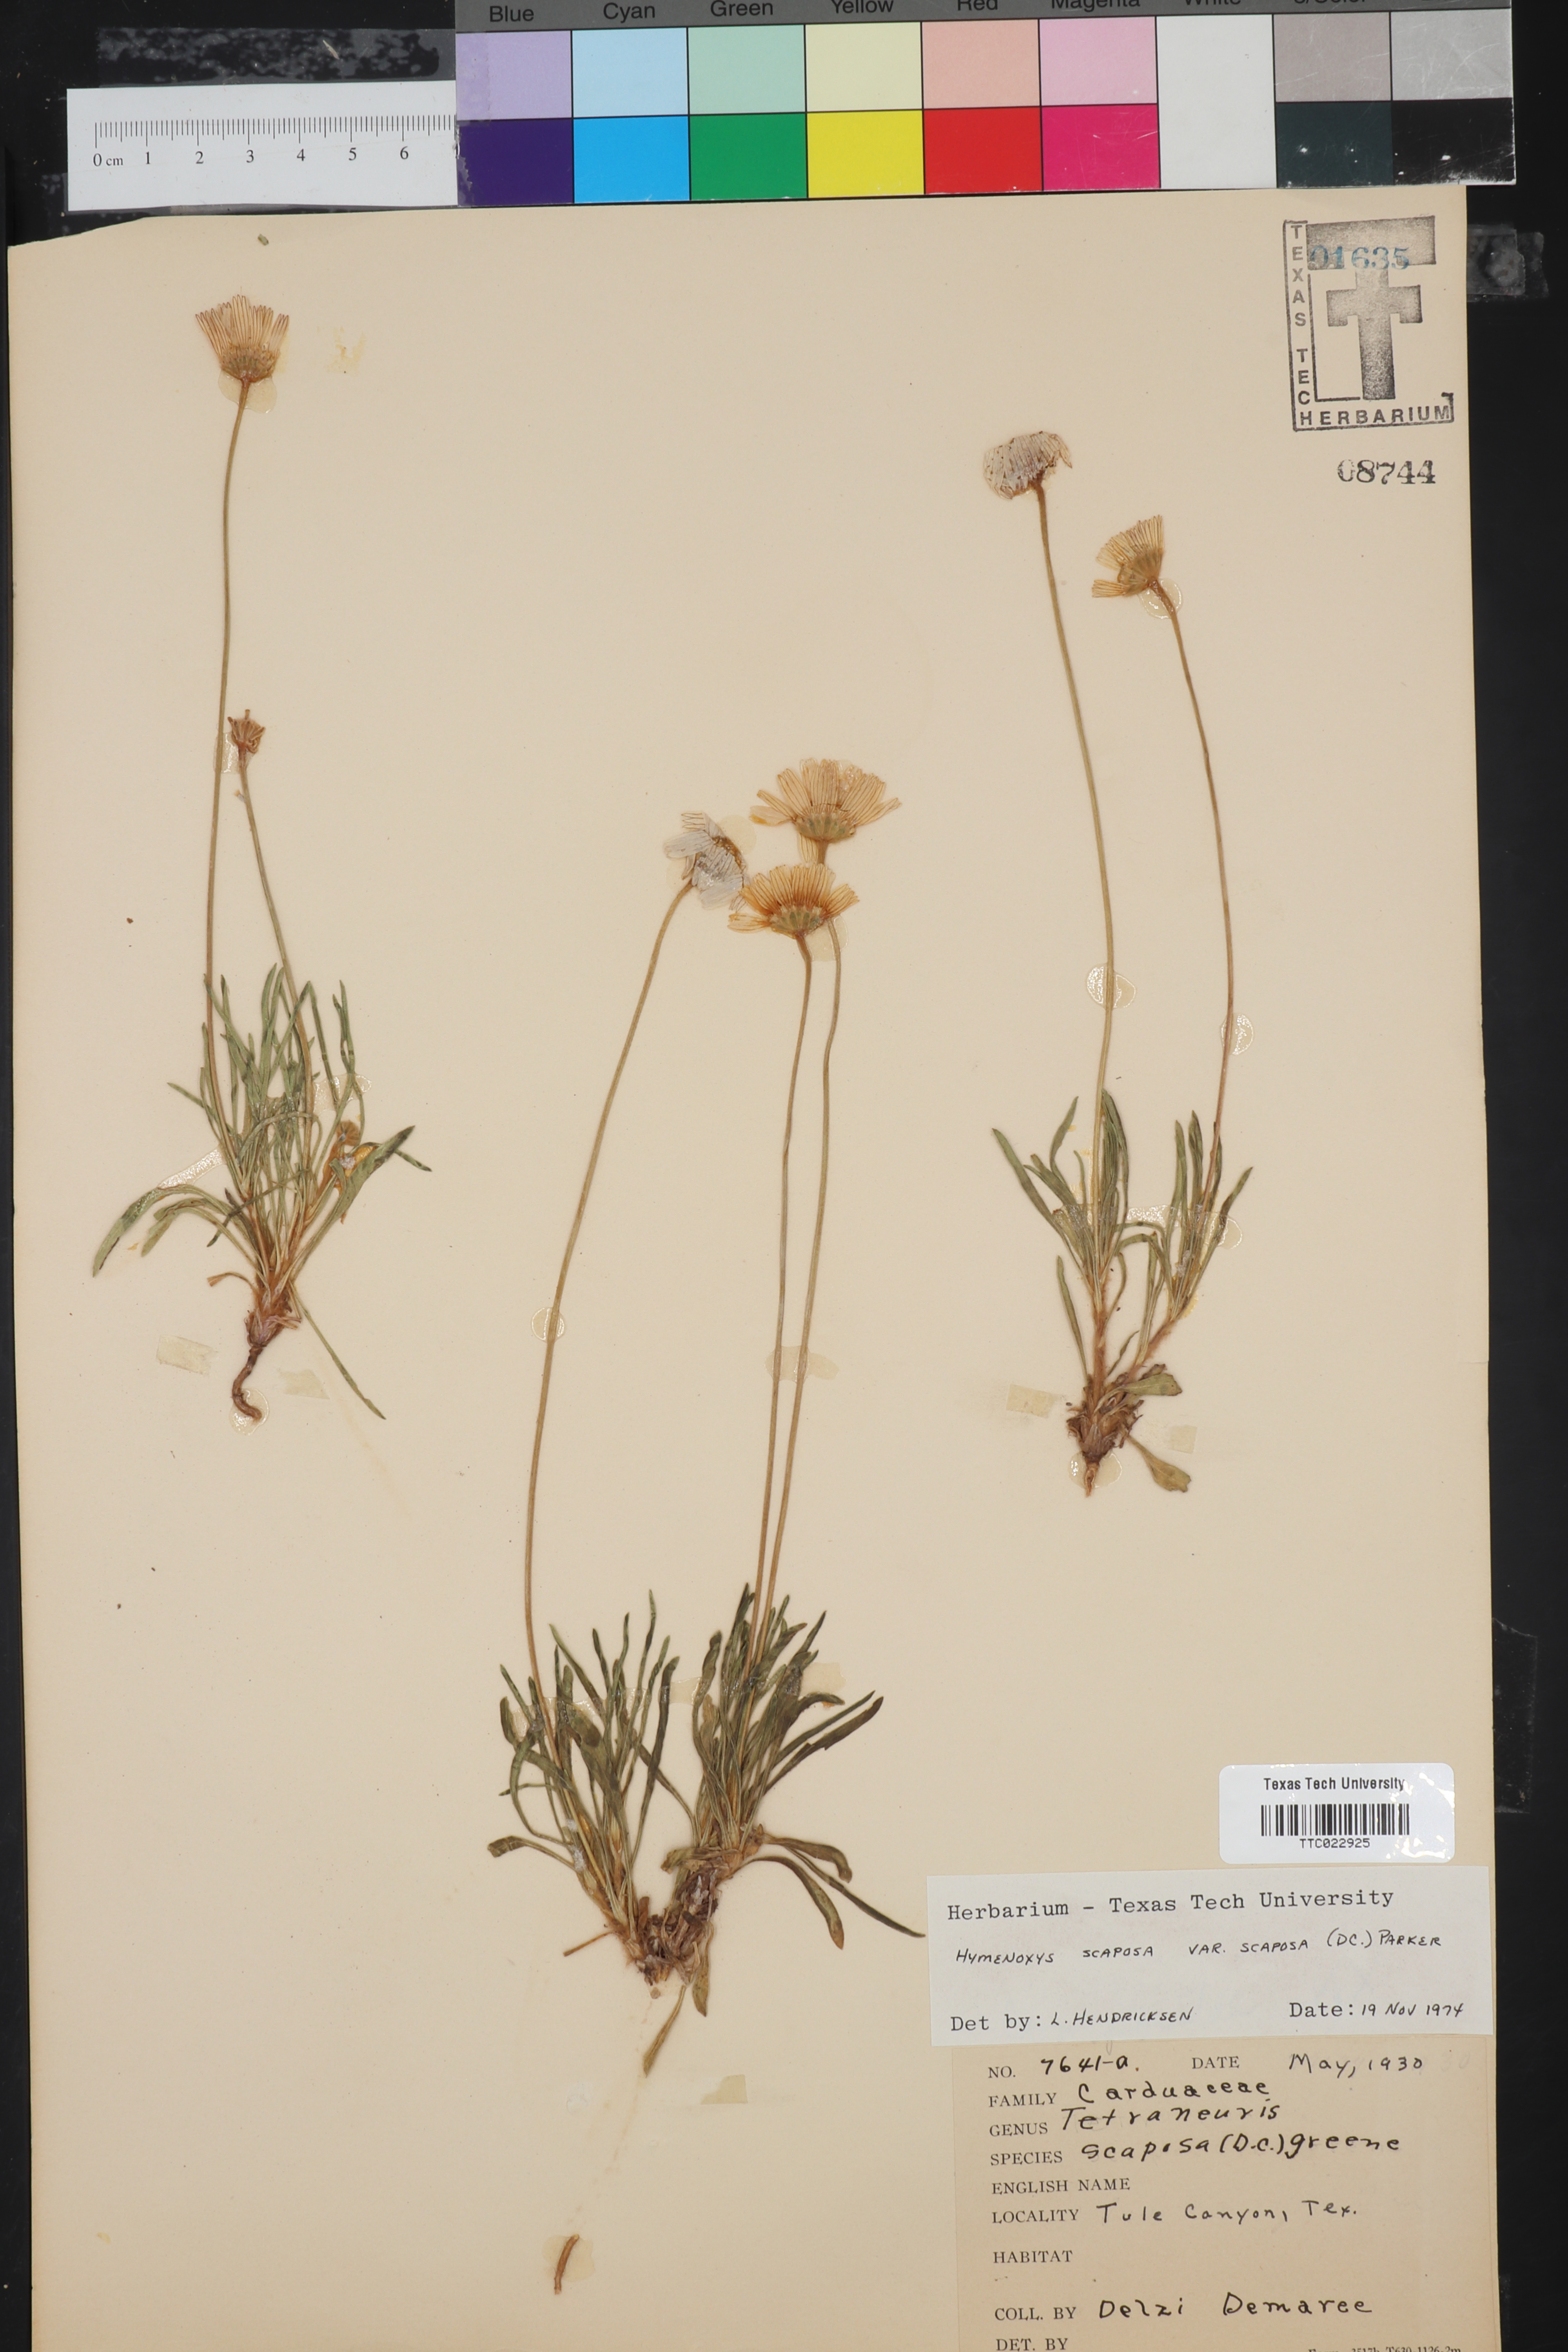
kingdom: Plantae
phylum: Tracheophyta
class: Magnoliopsida
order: Asterales
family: Asteraceae
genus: Tetraneuris
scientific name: Tetraneuris scaposa
